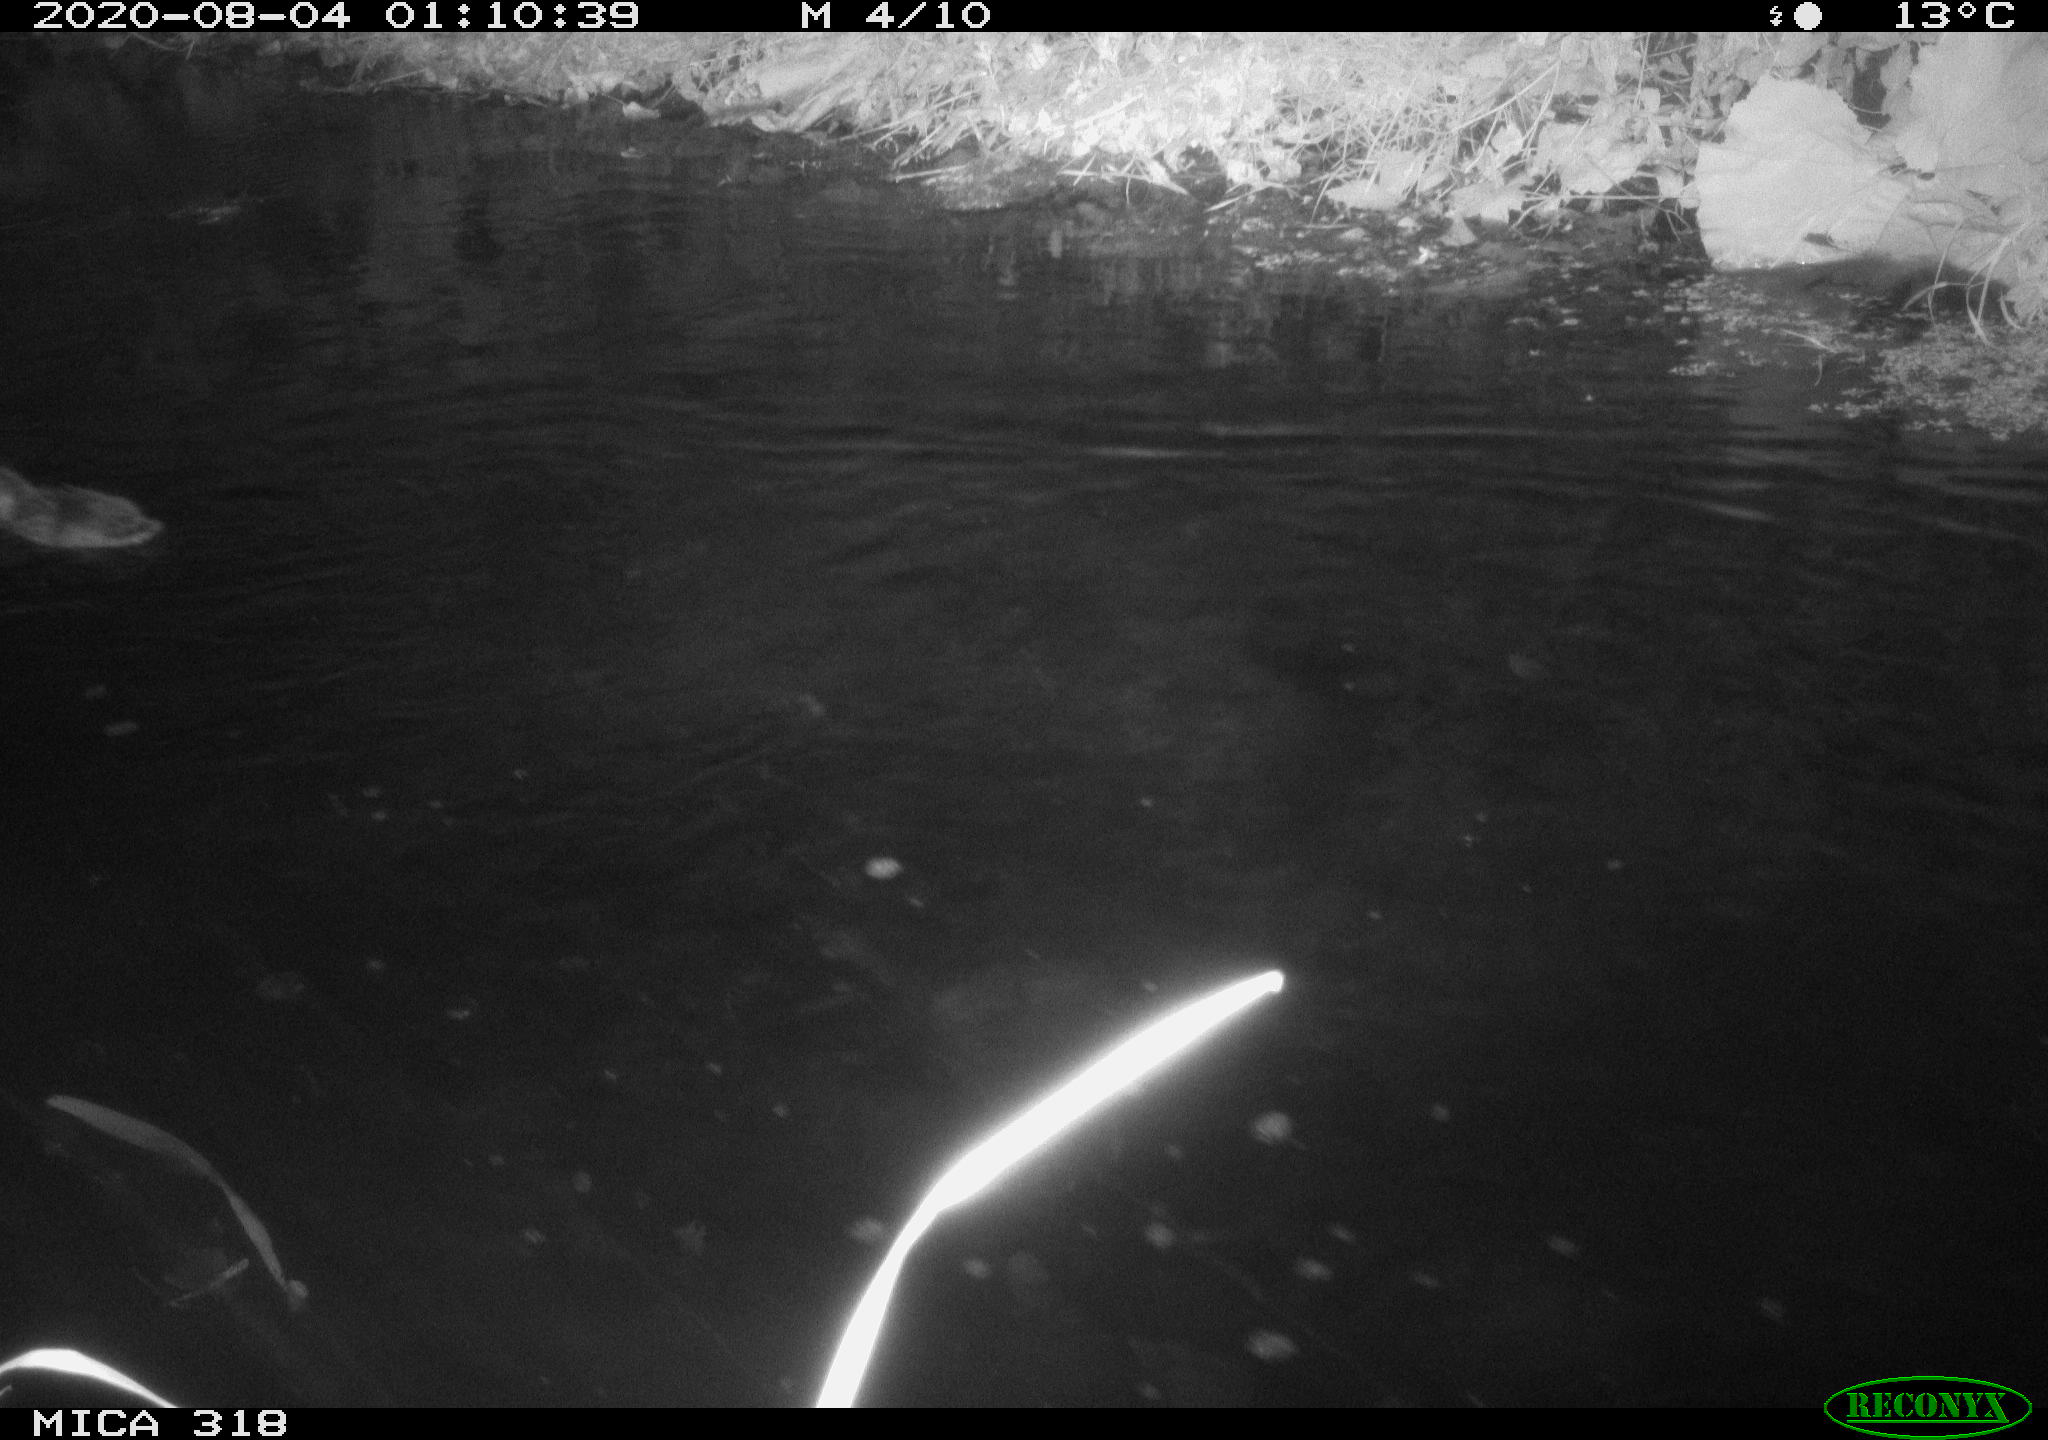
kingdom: Animalia
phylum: Chordata
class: Aves
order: Anseriformes
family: Anatidae
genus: Anas
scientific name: Anas platyrhynchos
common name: Mallard
